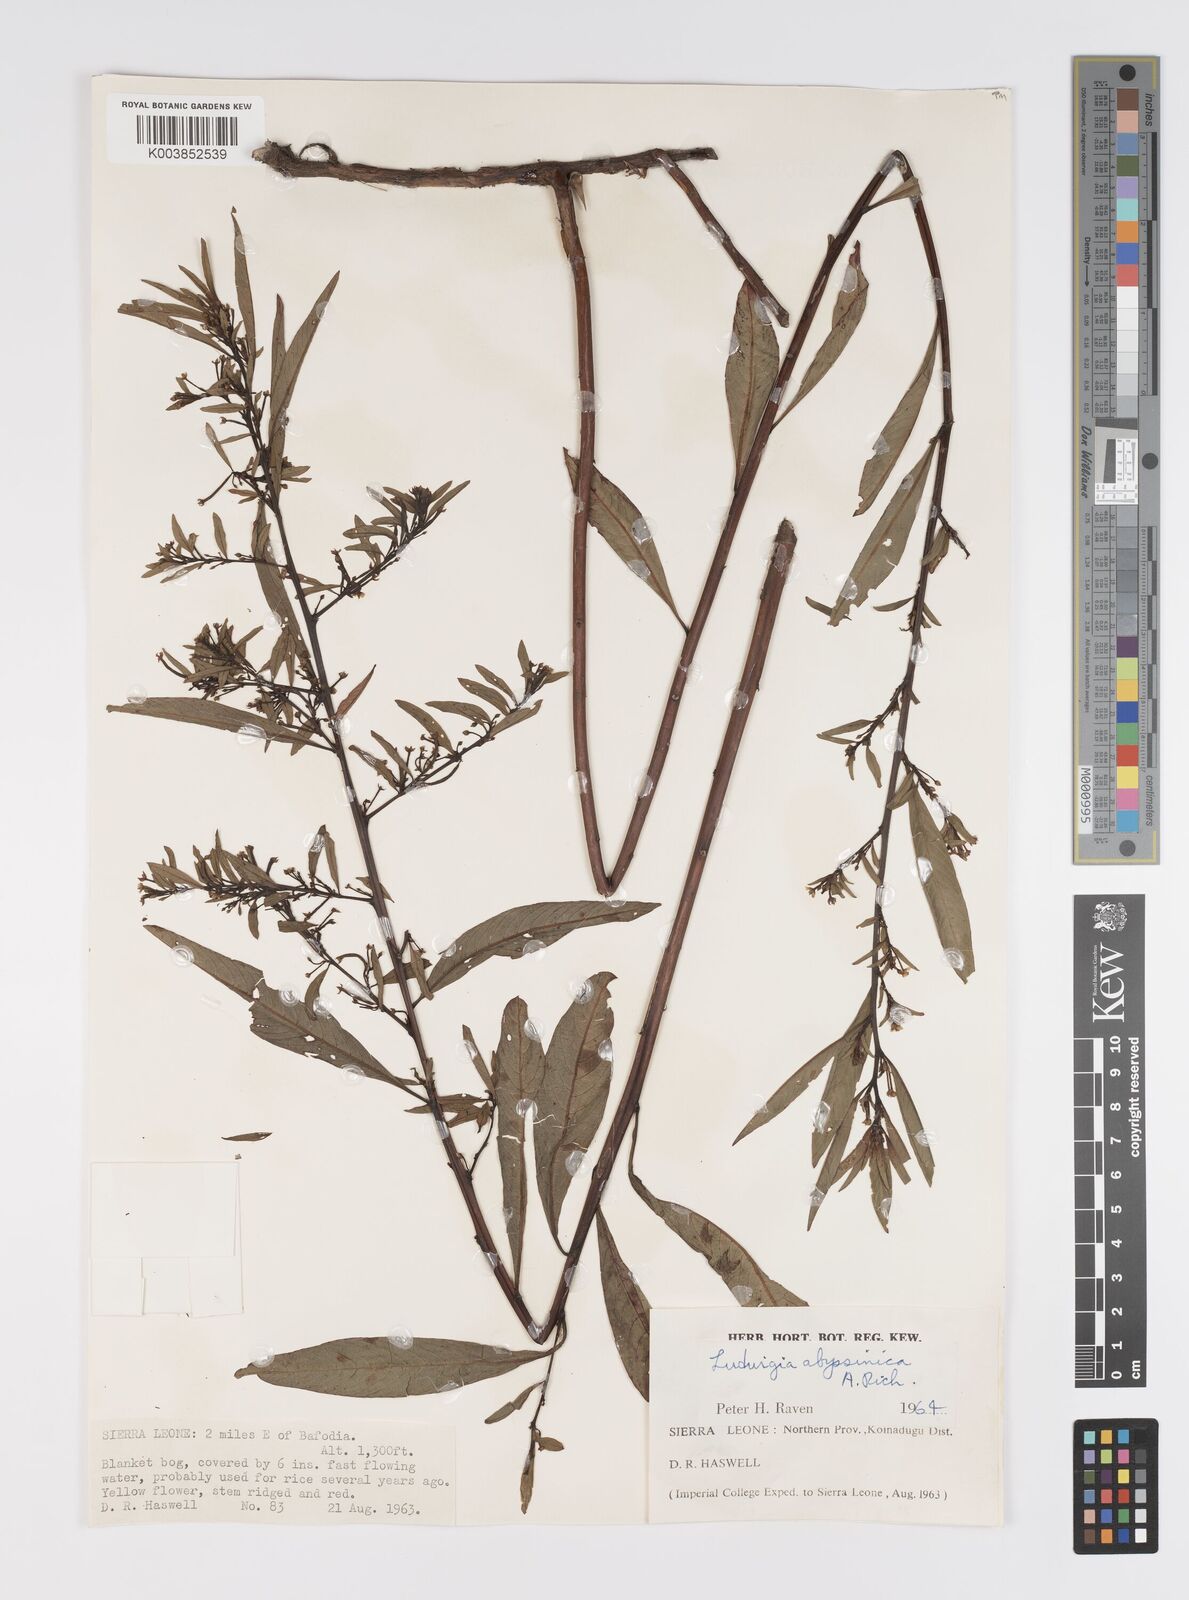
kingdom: Plantae
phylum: Tracheophyta
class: Magnoliopsida
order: Myrtales
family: Onagraceae
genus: Ludwigia
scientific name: Ludwigia abyssinica
